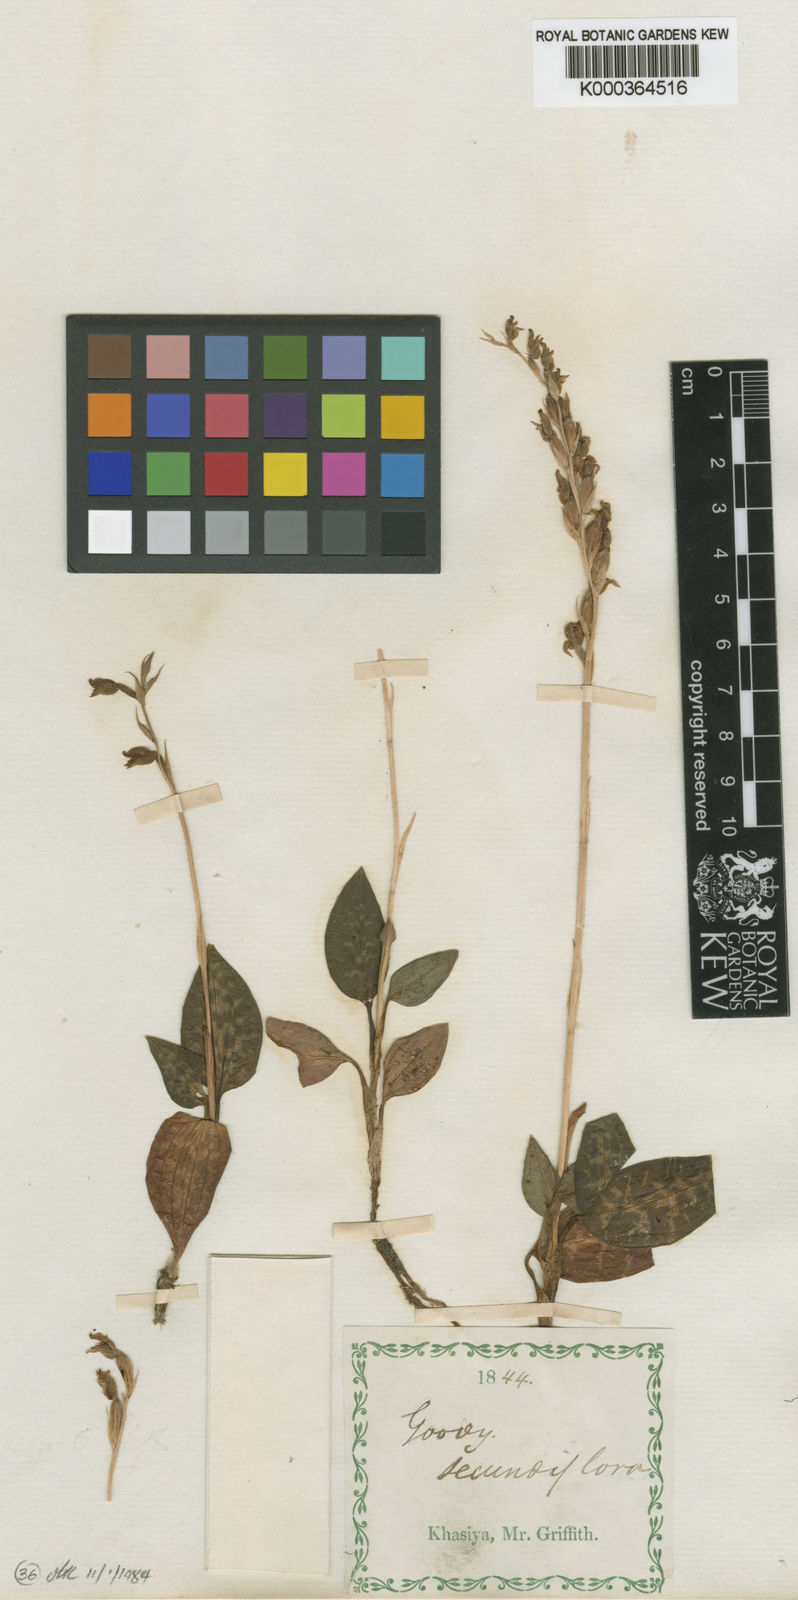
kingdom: Plantae
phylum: Tracheophyta
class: Liliopsida
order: Asparagales
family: Orchidaceae
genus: Goodyera
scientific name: Goodyera foliosa
